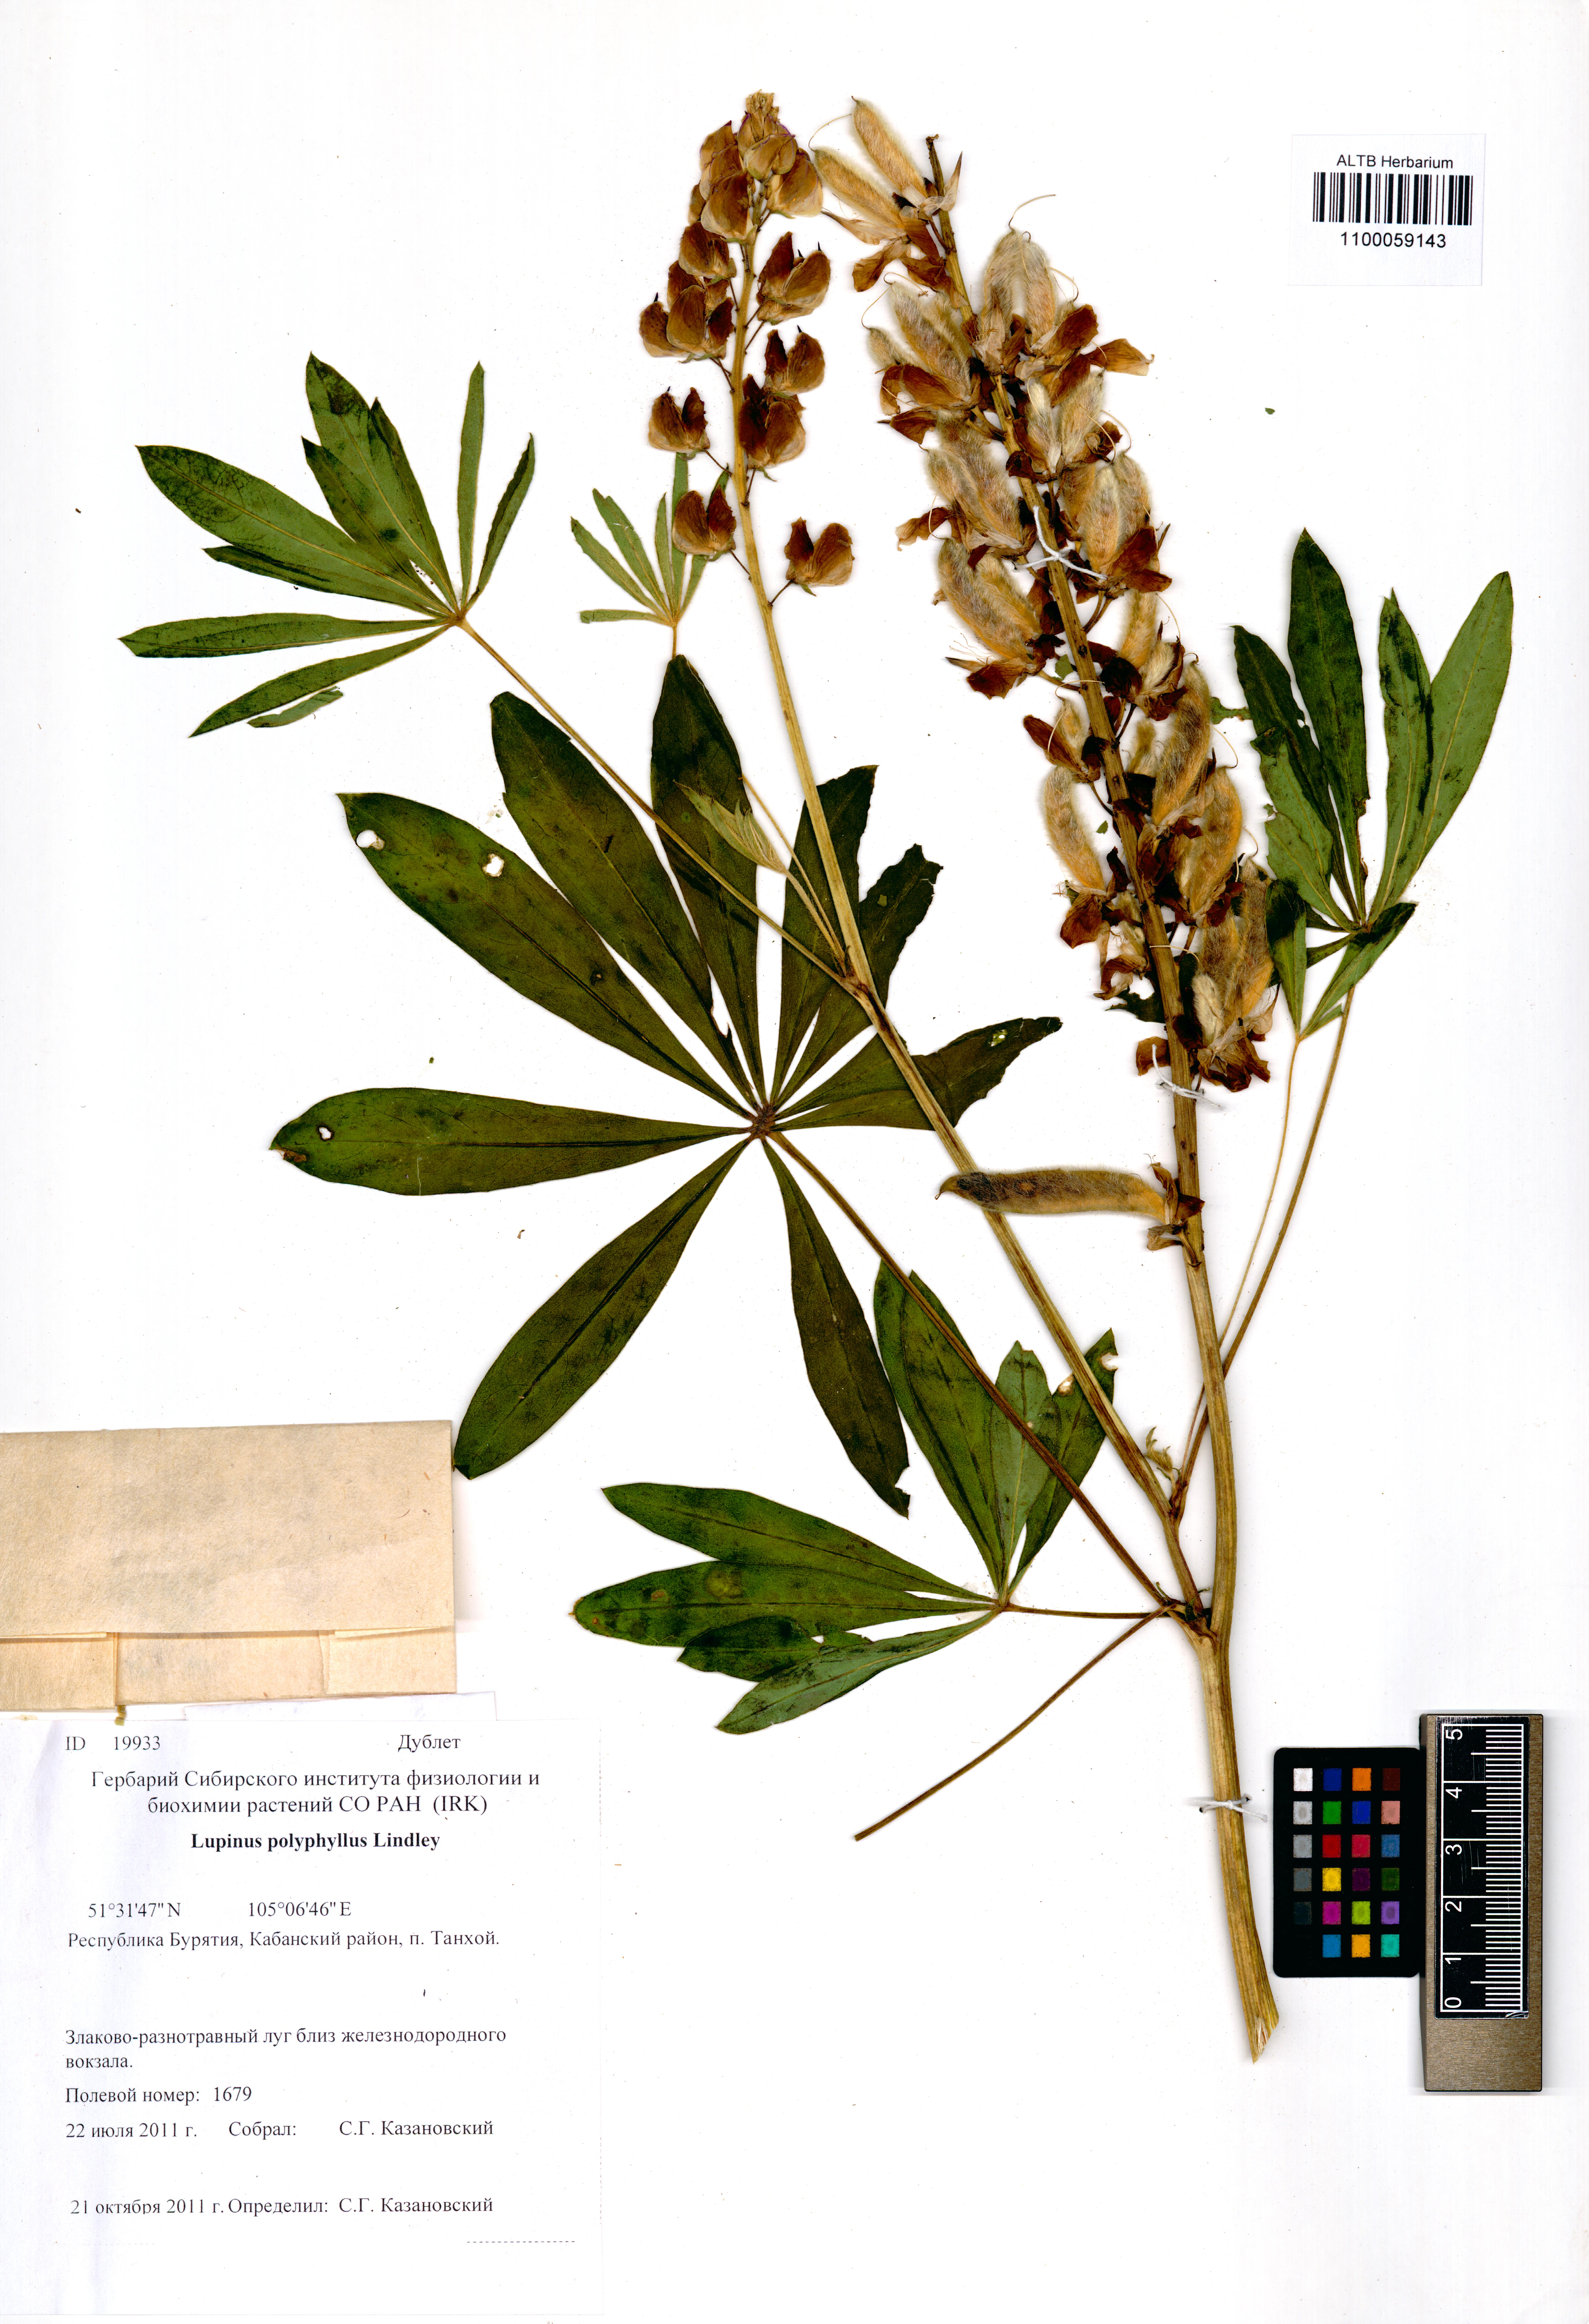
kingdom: Plantae
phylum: Tracheophyta
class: Magnoliopsida
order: Fabales
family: Fabaceae
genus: Trifolium
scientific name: Trifolium polyphyllum
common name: Many-leaf clover
